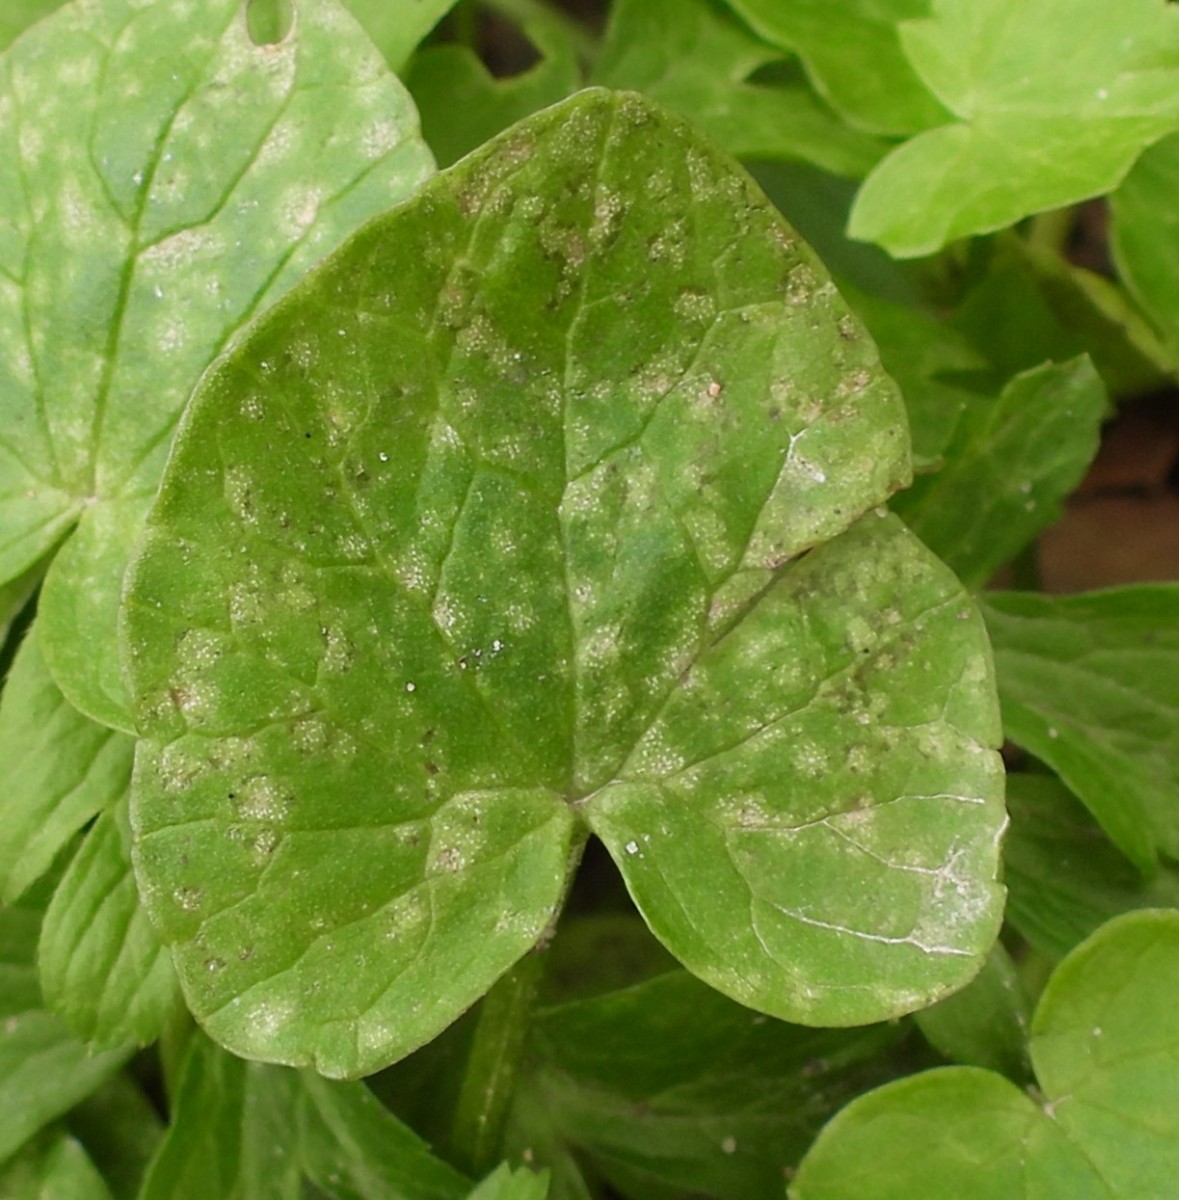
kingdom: Fungi
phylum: Basidiomycota
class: Exobasidiomycetes
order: Entylomatales
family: Entylomataceae
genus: Entyloma
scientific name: Entyloma ficariae
